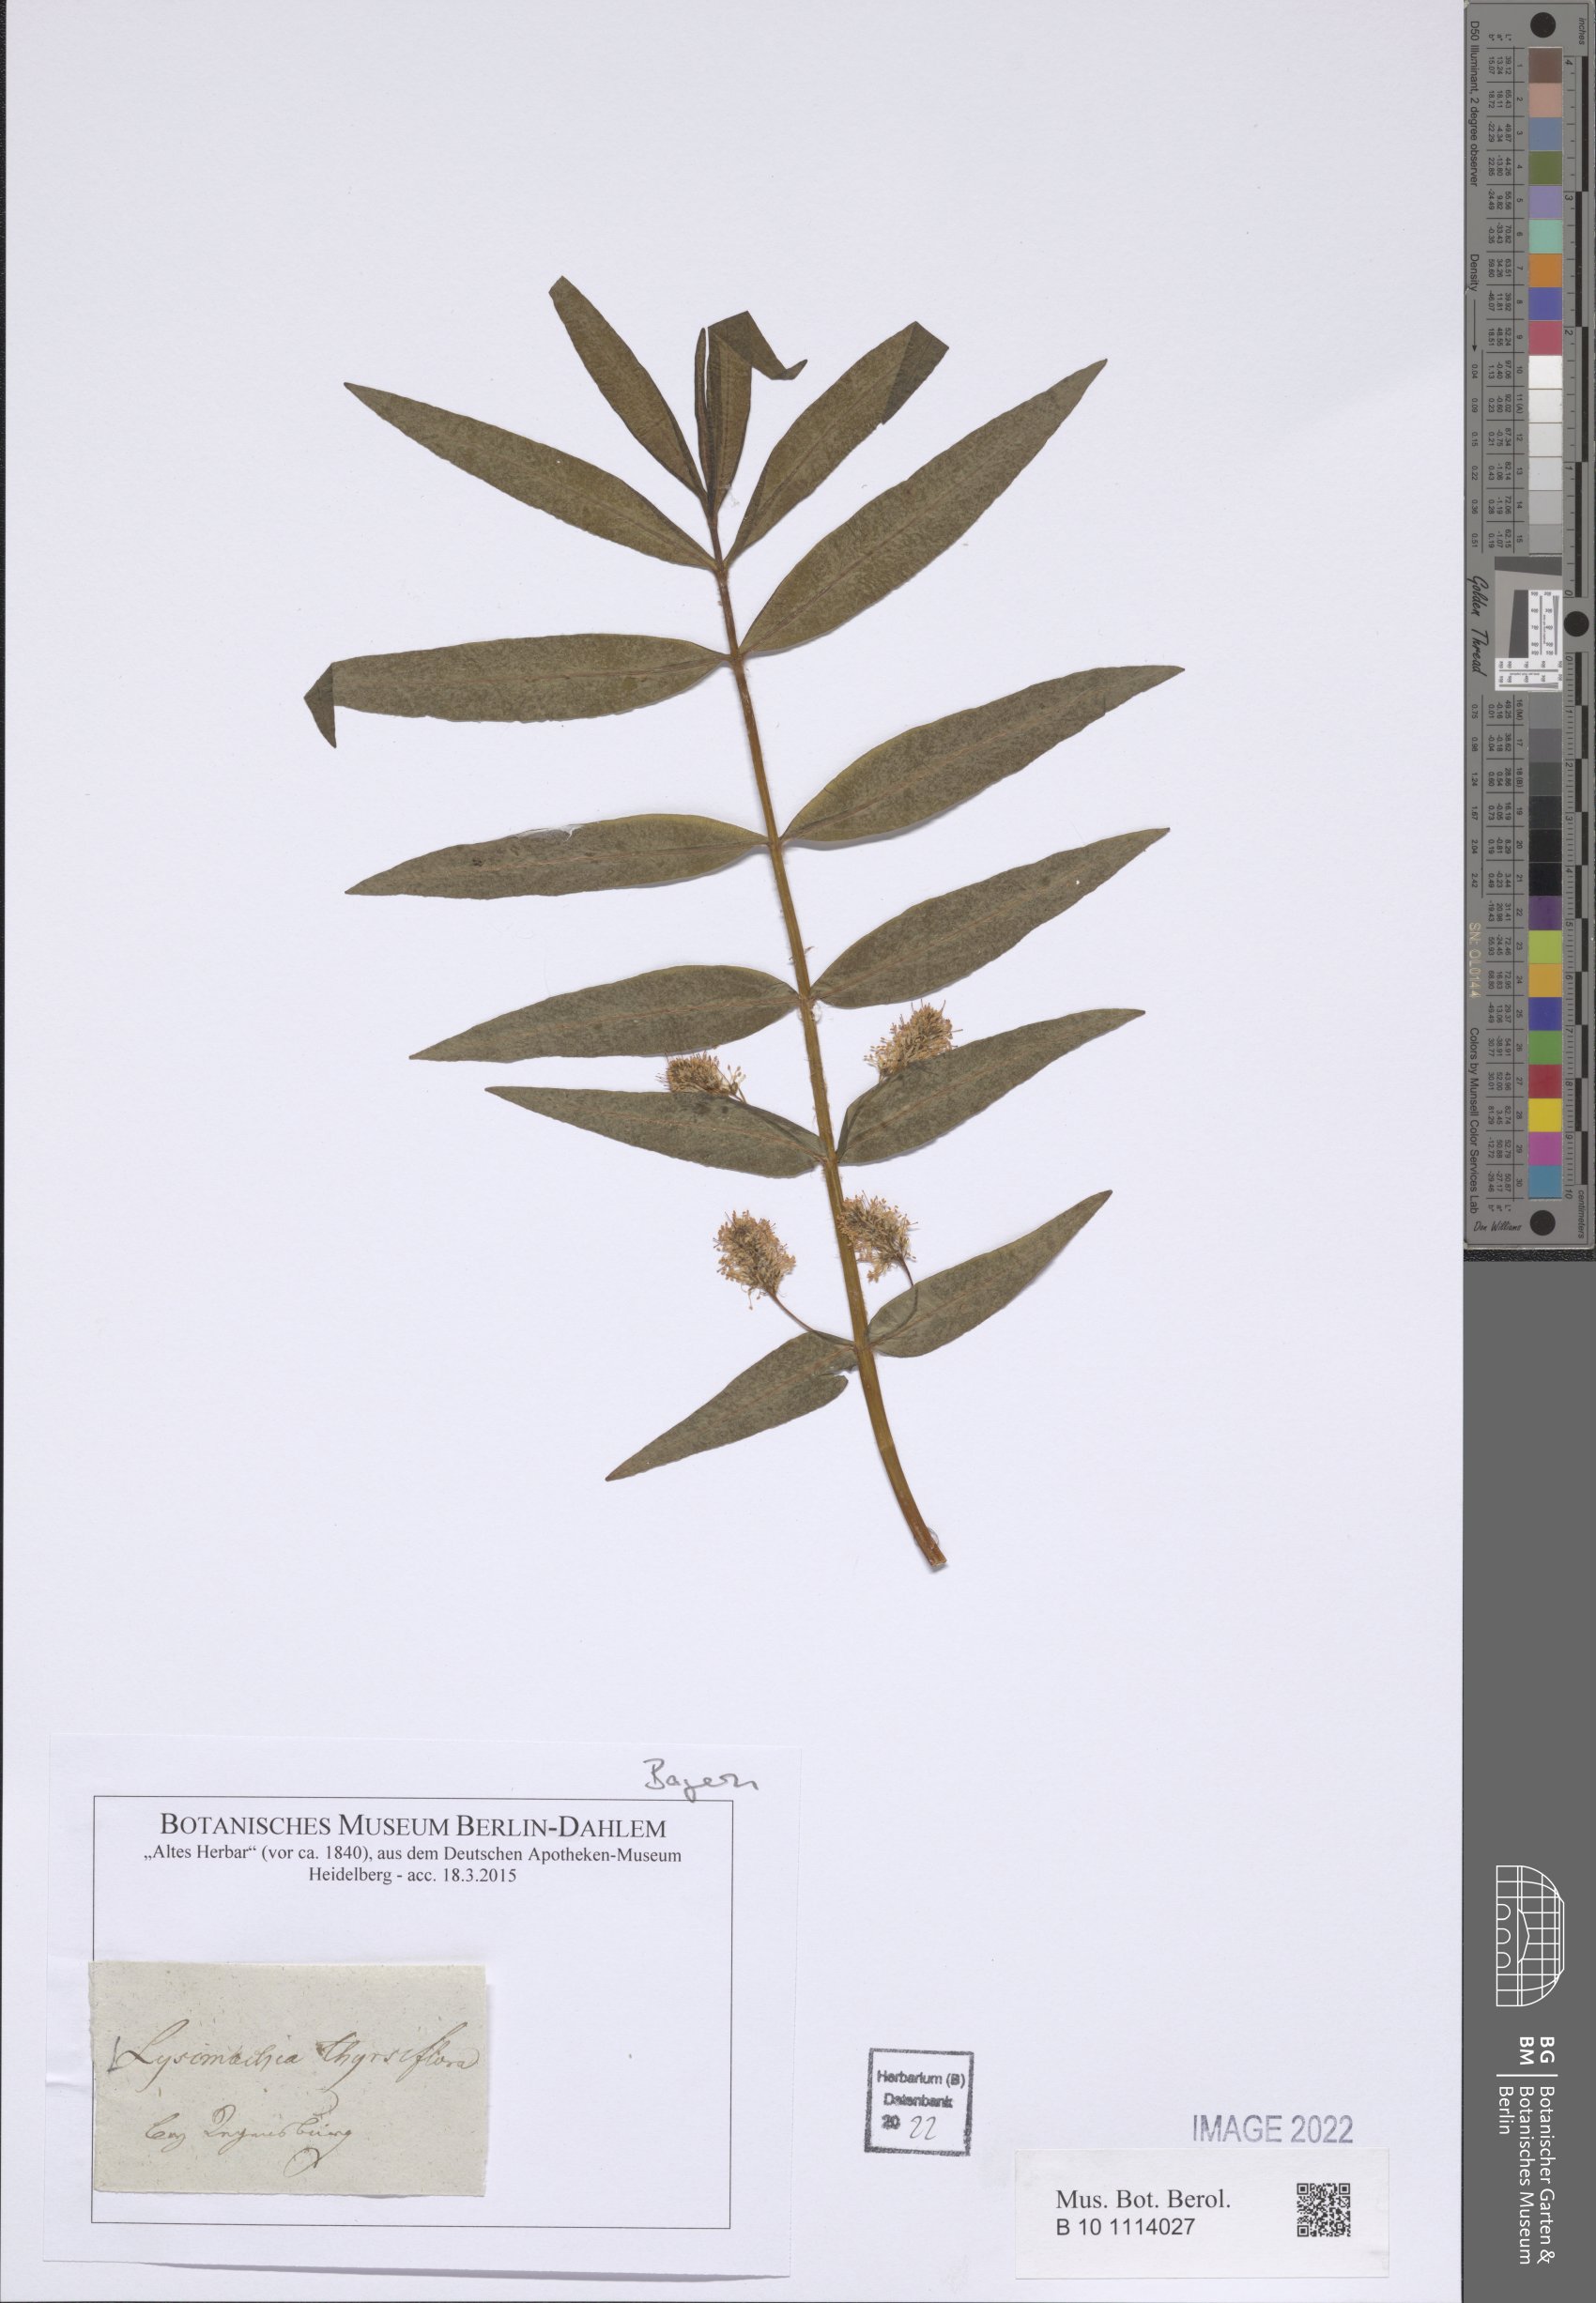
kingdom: Plantae
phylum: Tracheophyta
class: Magnoliopsida
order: Ericales
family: Primulaceae
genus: Lysimachia
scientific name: Lysimachia thyrsiflora
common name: Tufted loosestrife
